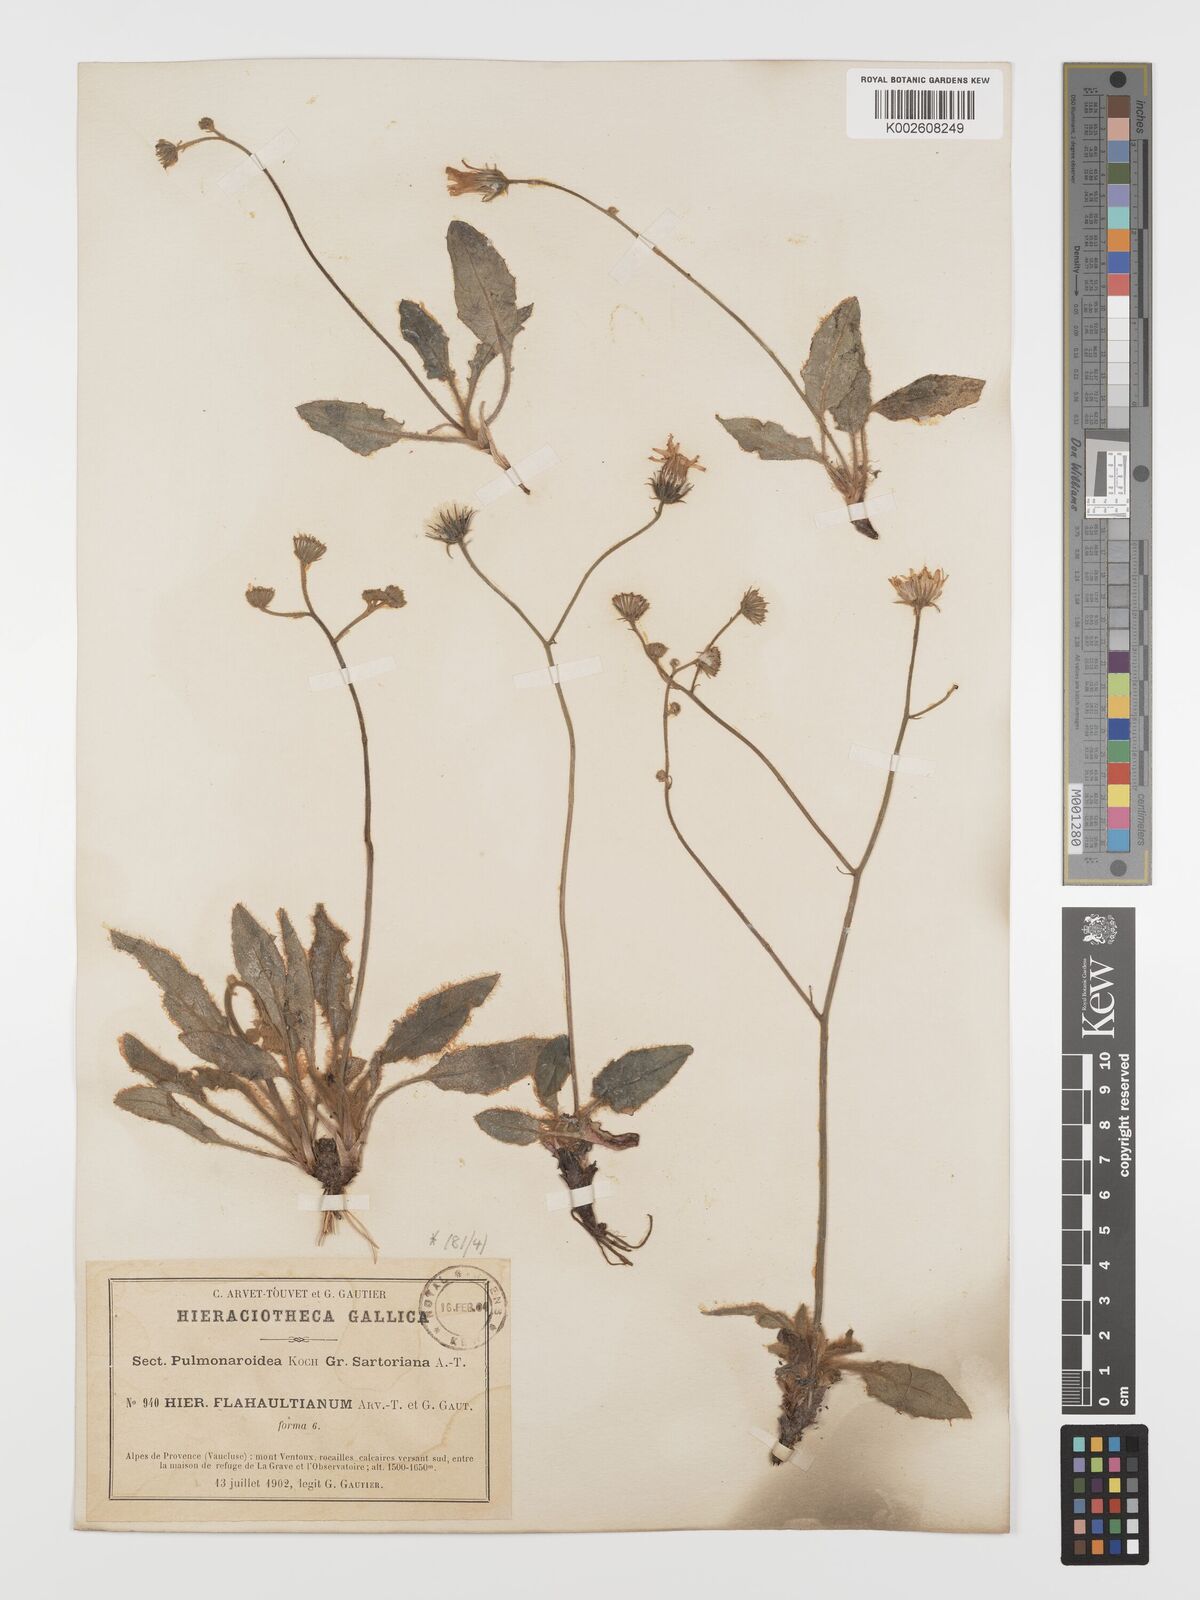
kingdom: Plantae
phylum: Tracheophyta
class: Magnoliopsida
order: Asterales
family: Asteraceae
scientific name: Asteraceae
